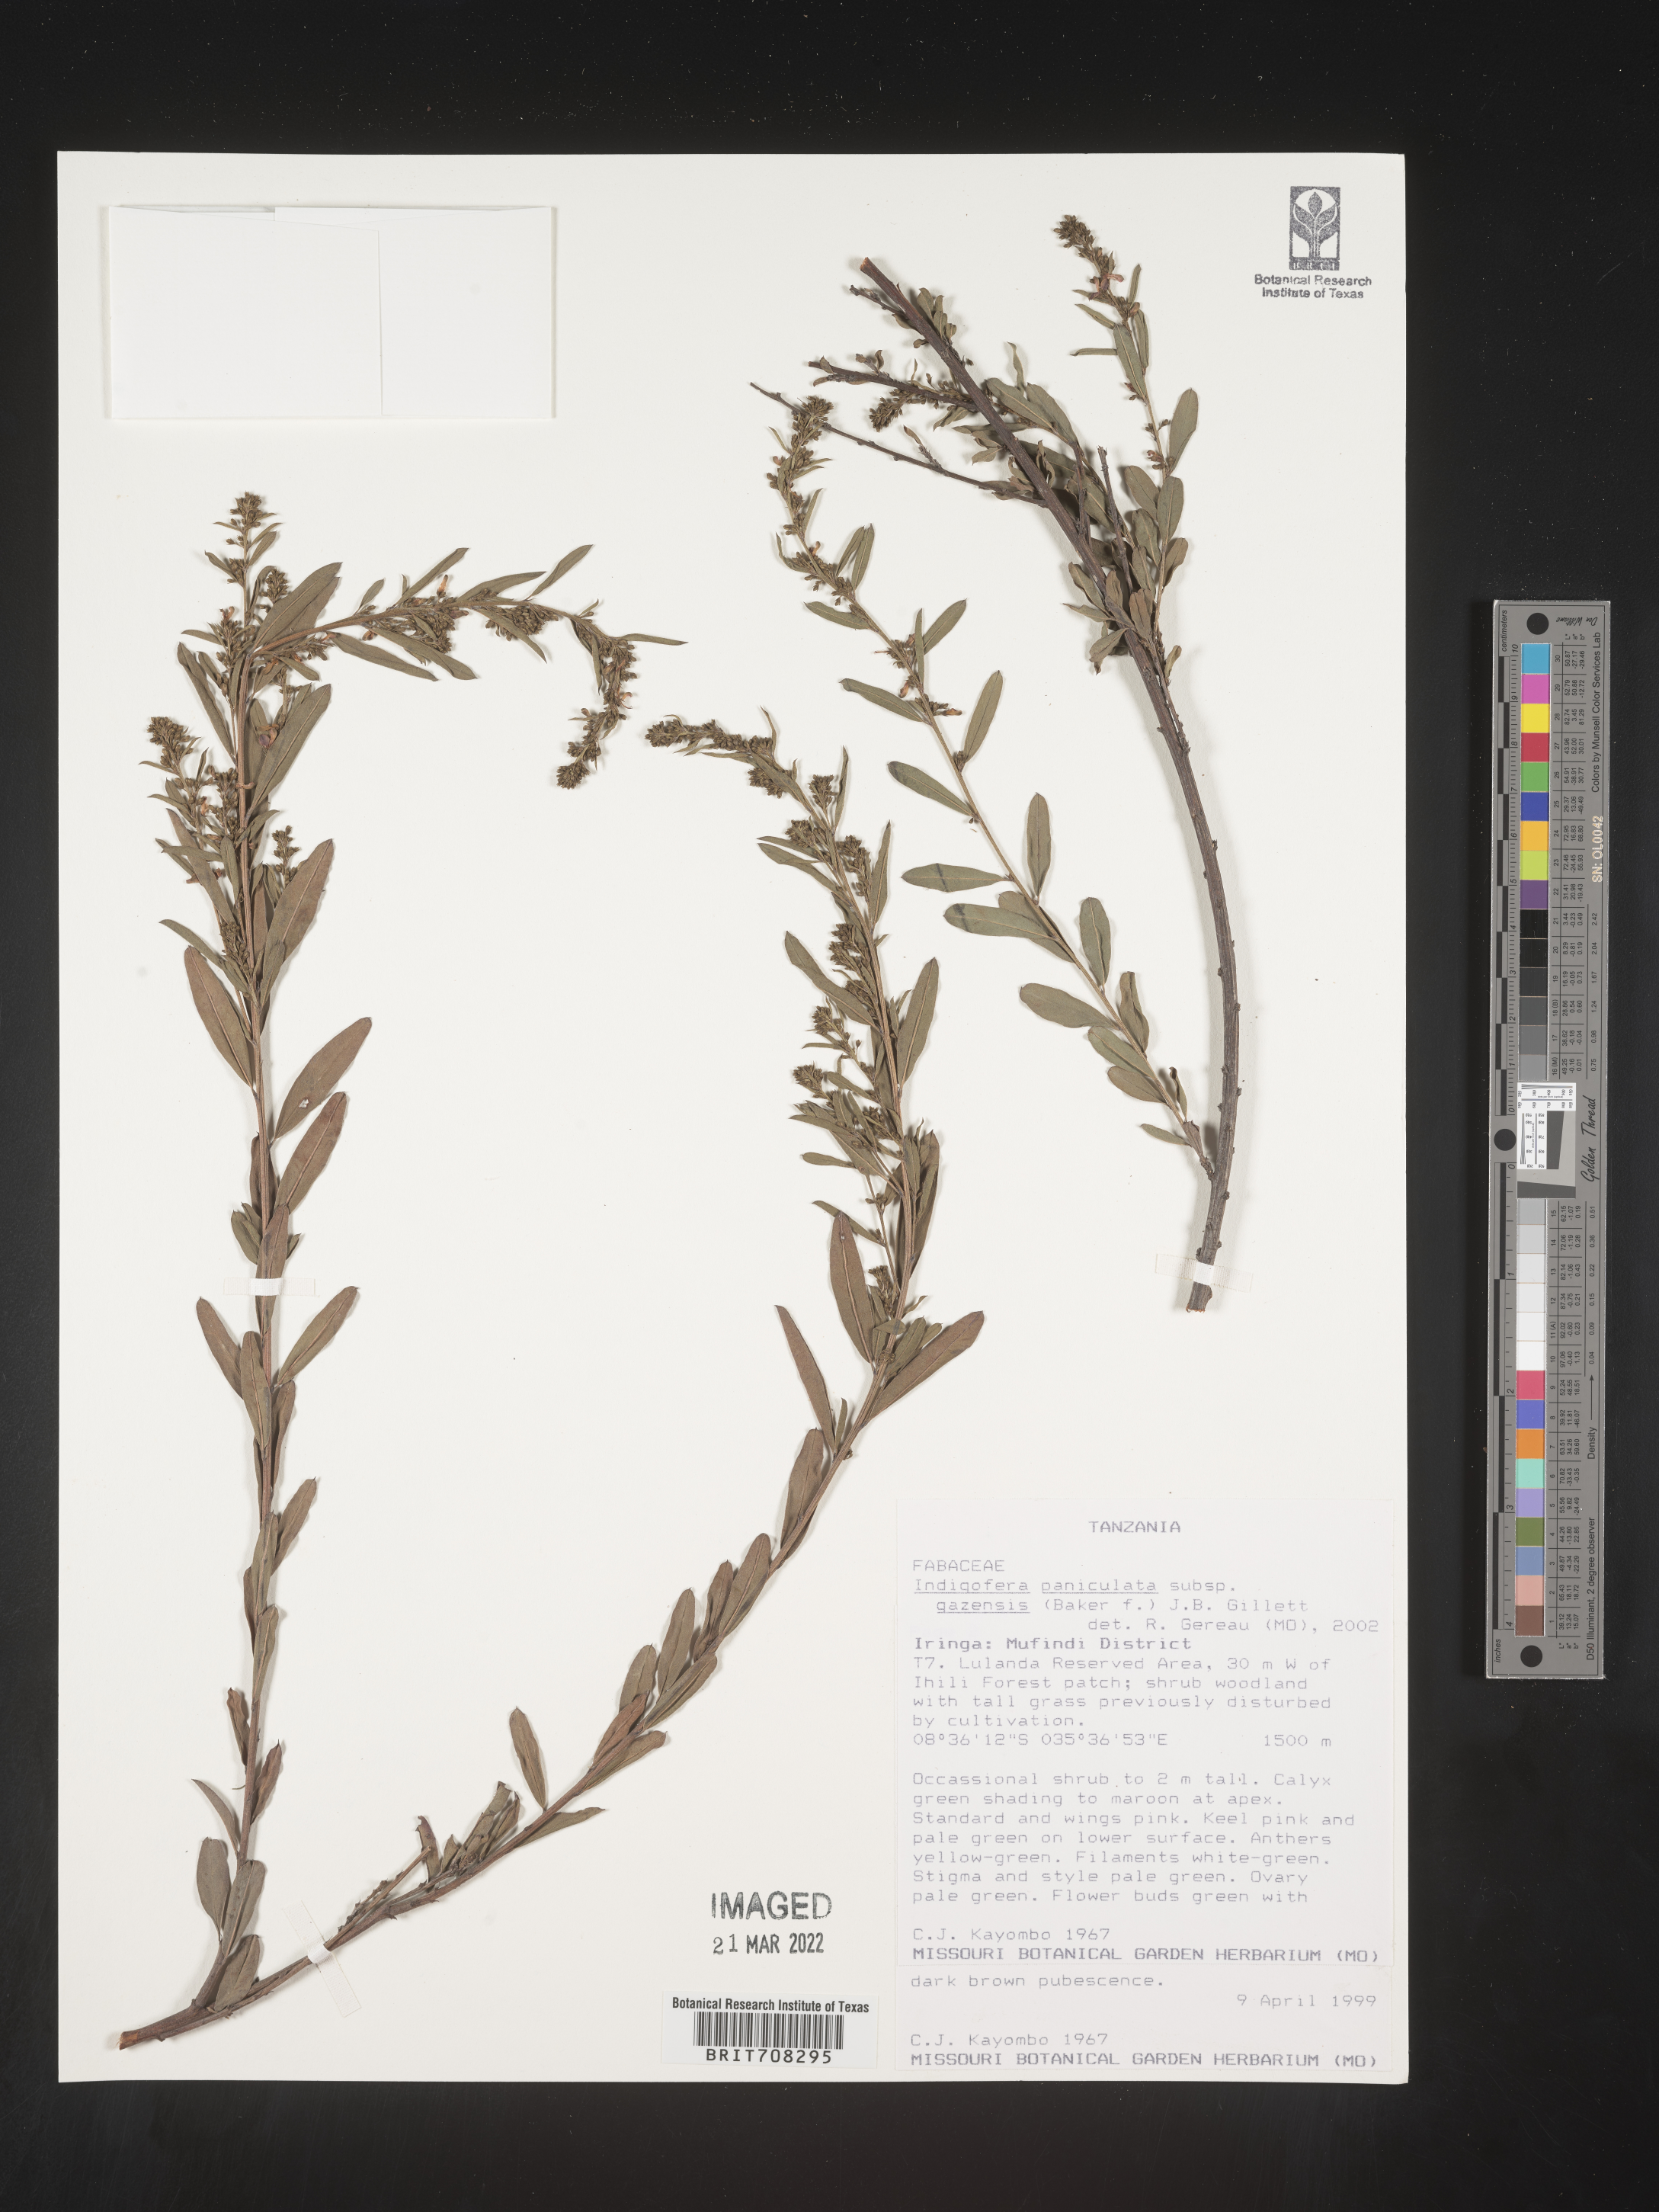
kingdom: Plantae
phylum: Tracheophyta
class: Magnoliopsida
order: Fabales
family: Fabaceae
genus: Indigofera
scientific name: Indigofera
